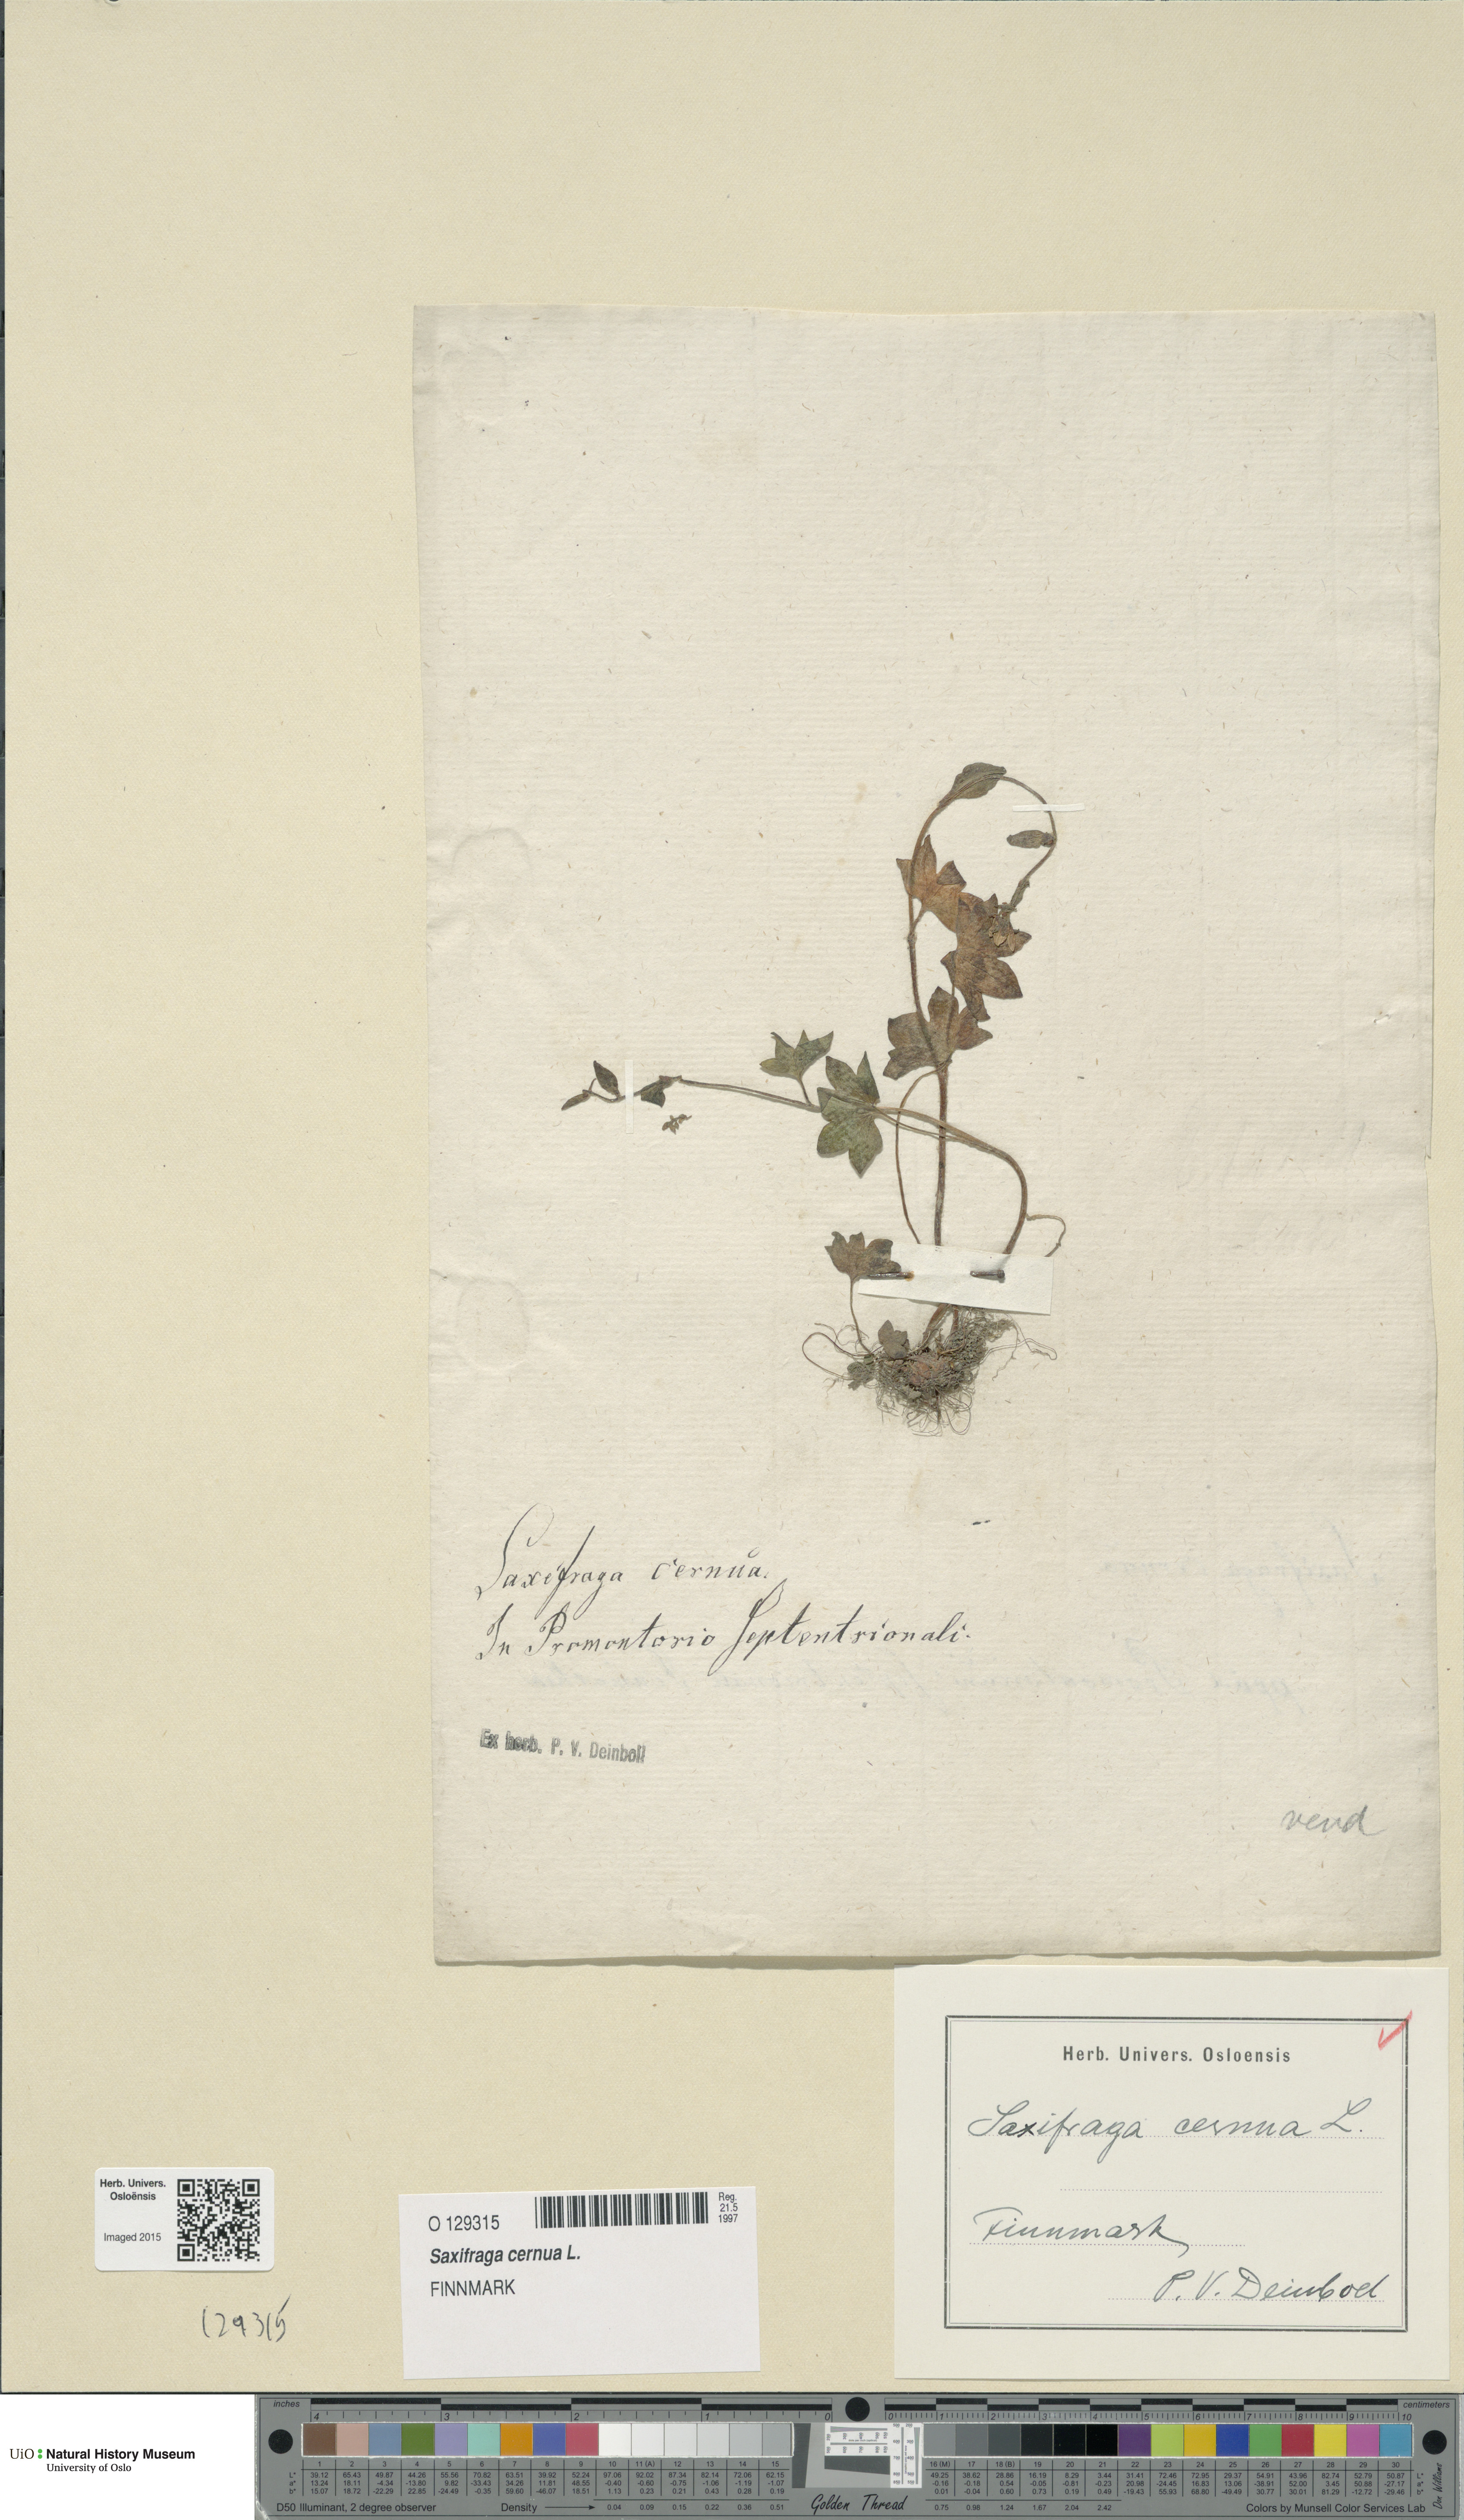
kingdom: Plantae
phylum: Tracheophyta
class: Magnoliopsida
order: Saxifragales
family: Saxifragaceae
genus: Saxifraga
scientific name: Saxifraga cernua
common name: Drooping saxifrage
